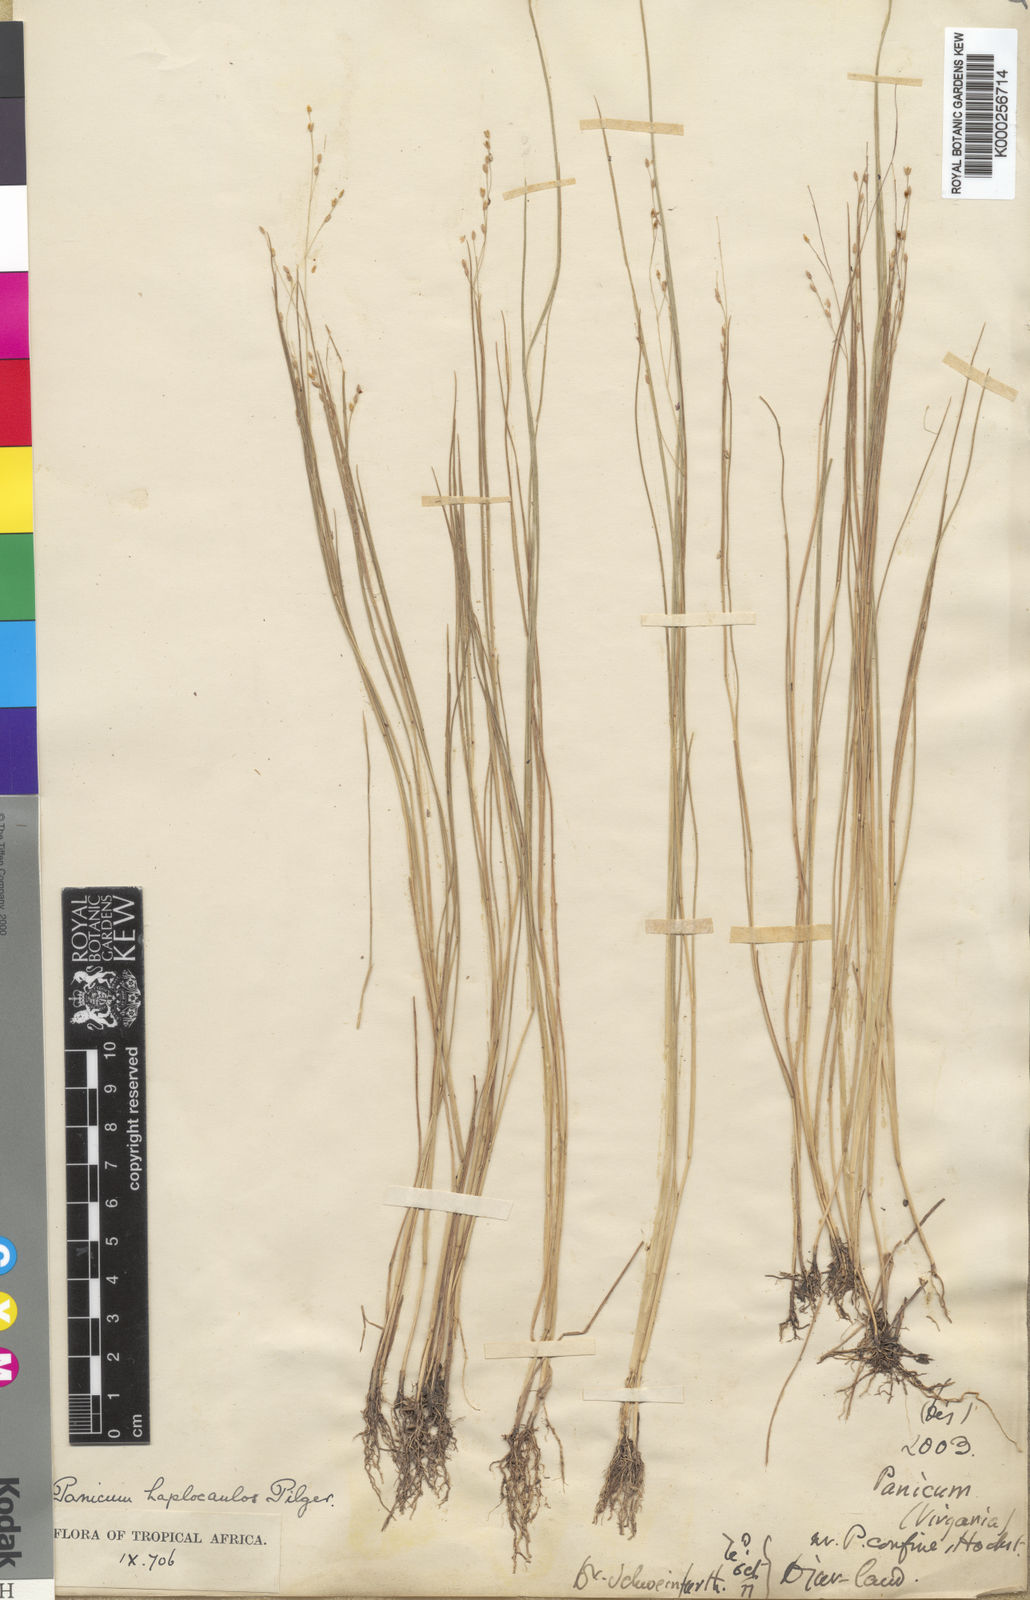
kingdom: Plantae
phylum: Tracheophyta
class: Liliopsida
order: Poales
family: Poaceae
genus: Panicum
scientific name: Panicum haplocaulos
